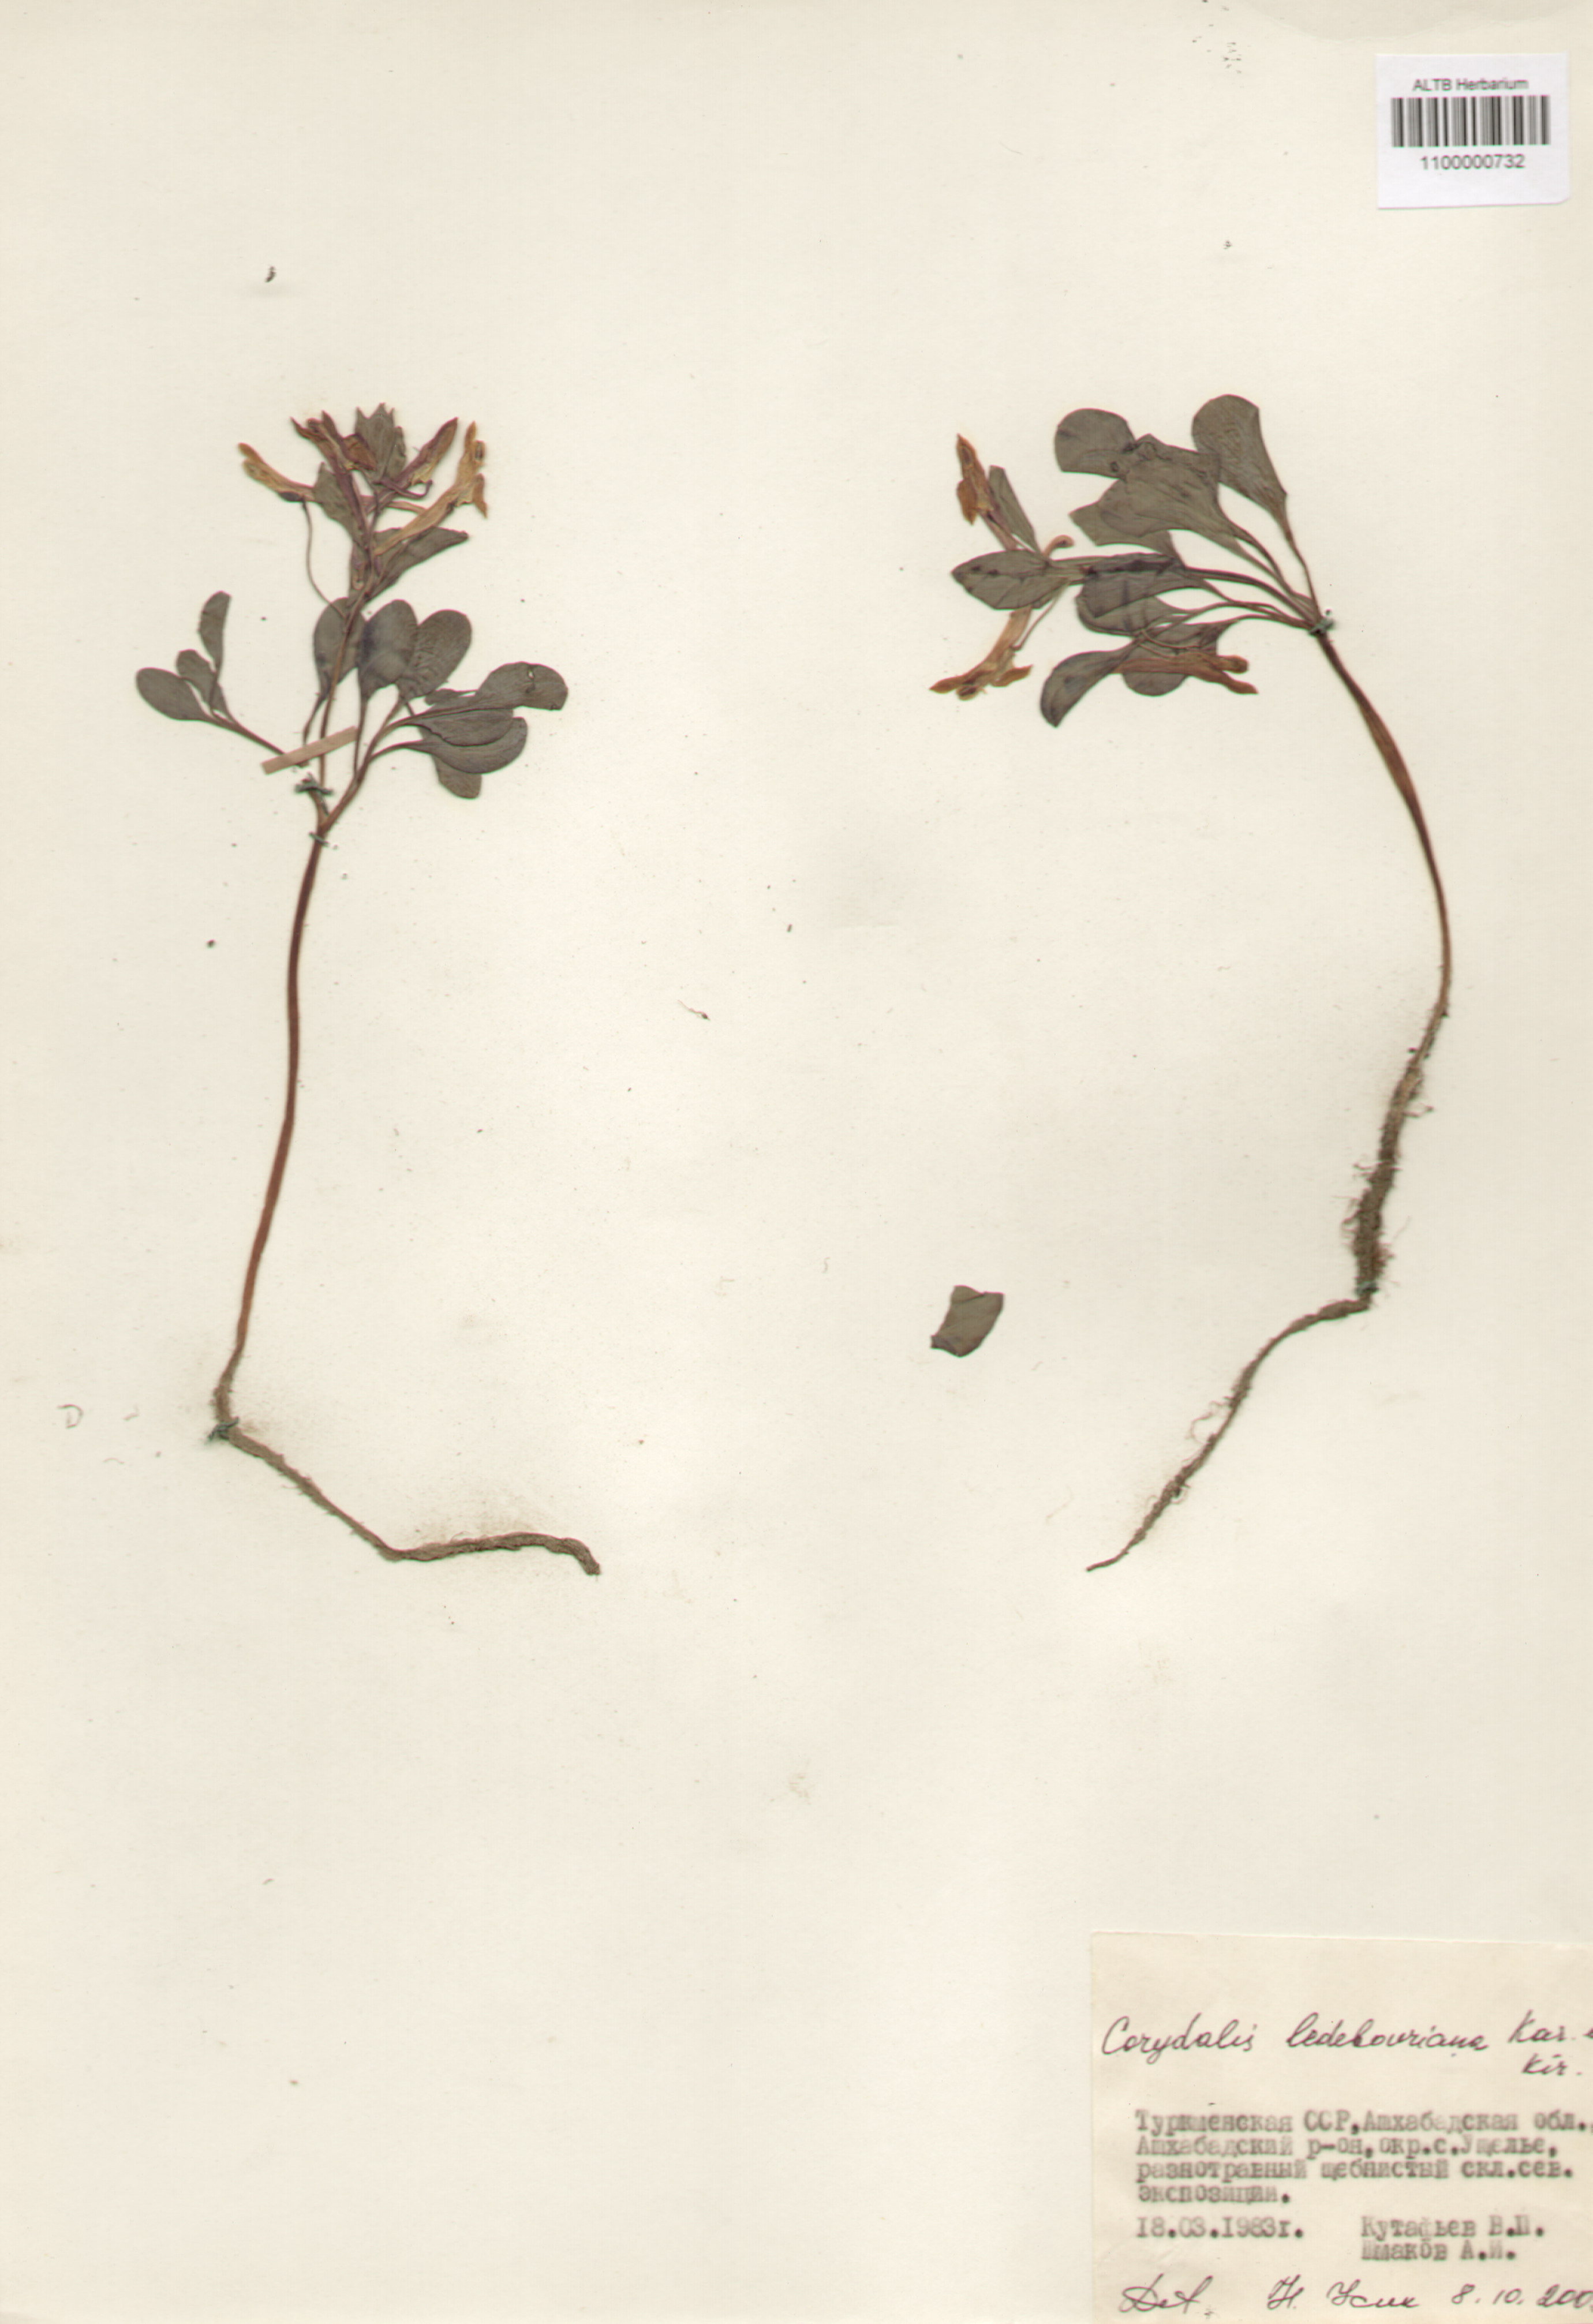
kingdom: Plantae
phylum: Tracheophyta
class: Magnoliopsida
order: Ranunculales
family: Papaveraceae
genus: Corydalis
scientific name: Corydalis ledebouriana
